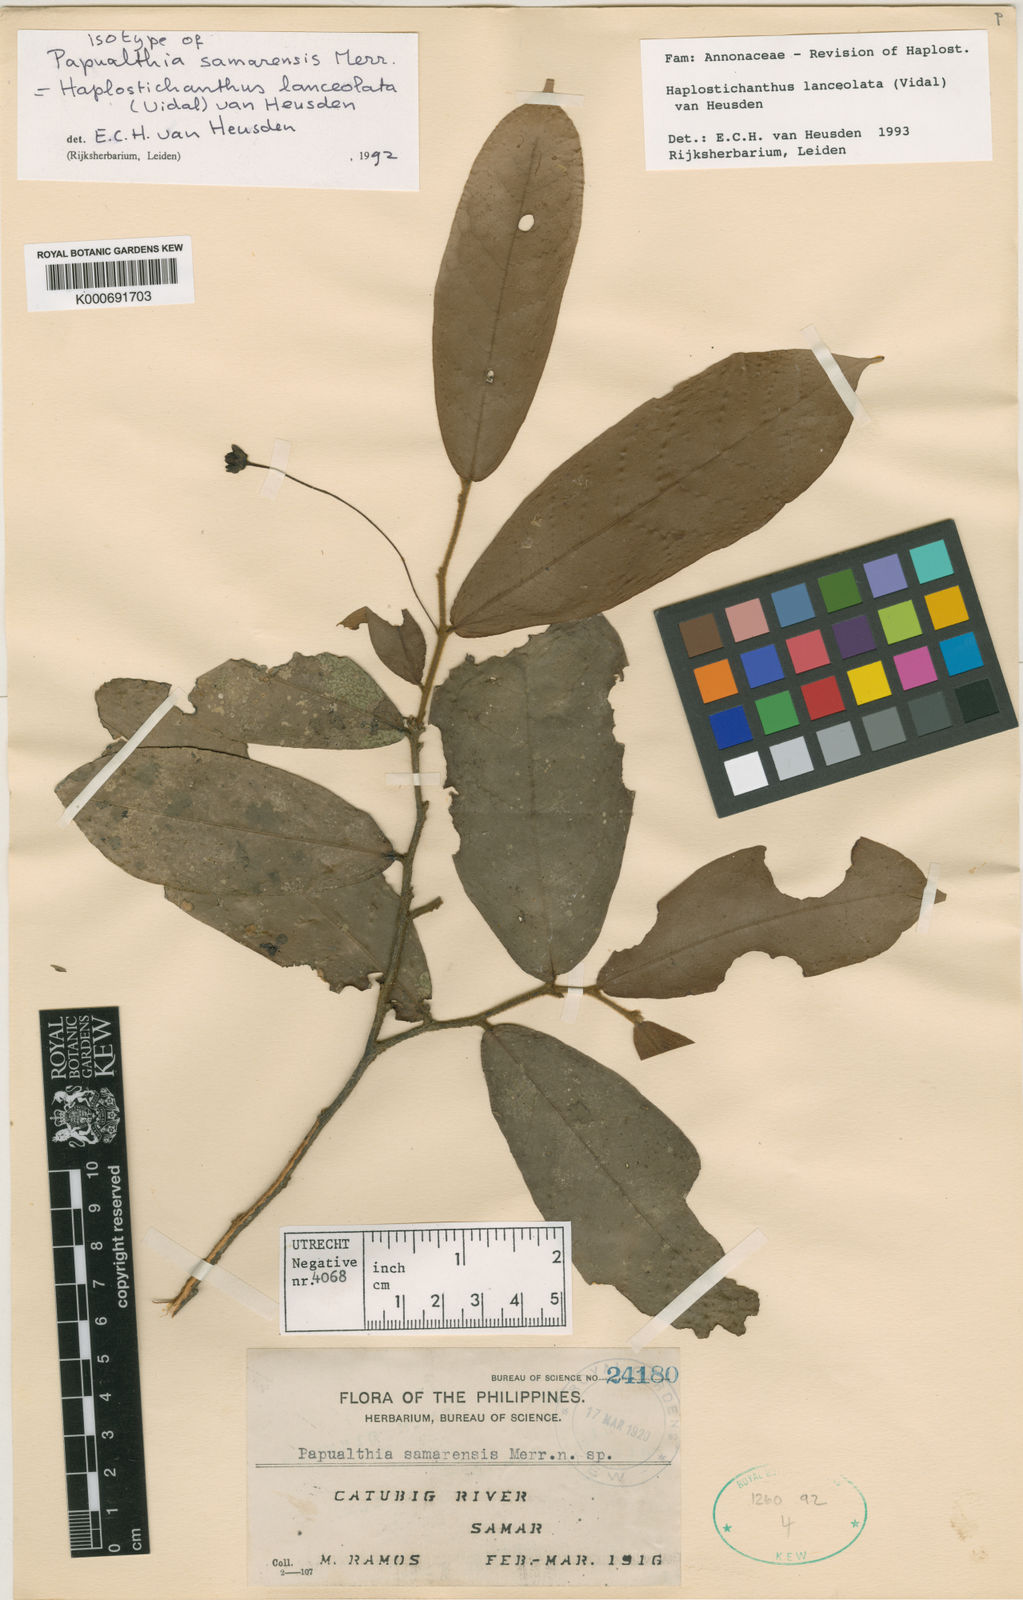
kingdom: Plantae
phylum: Tracheophyta
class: Magnoliopsida
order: Magnoliales
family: Annonaceae
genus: Haplostichanthus
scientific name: Haplostichanthus lanceolata
